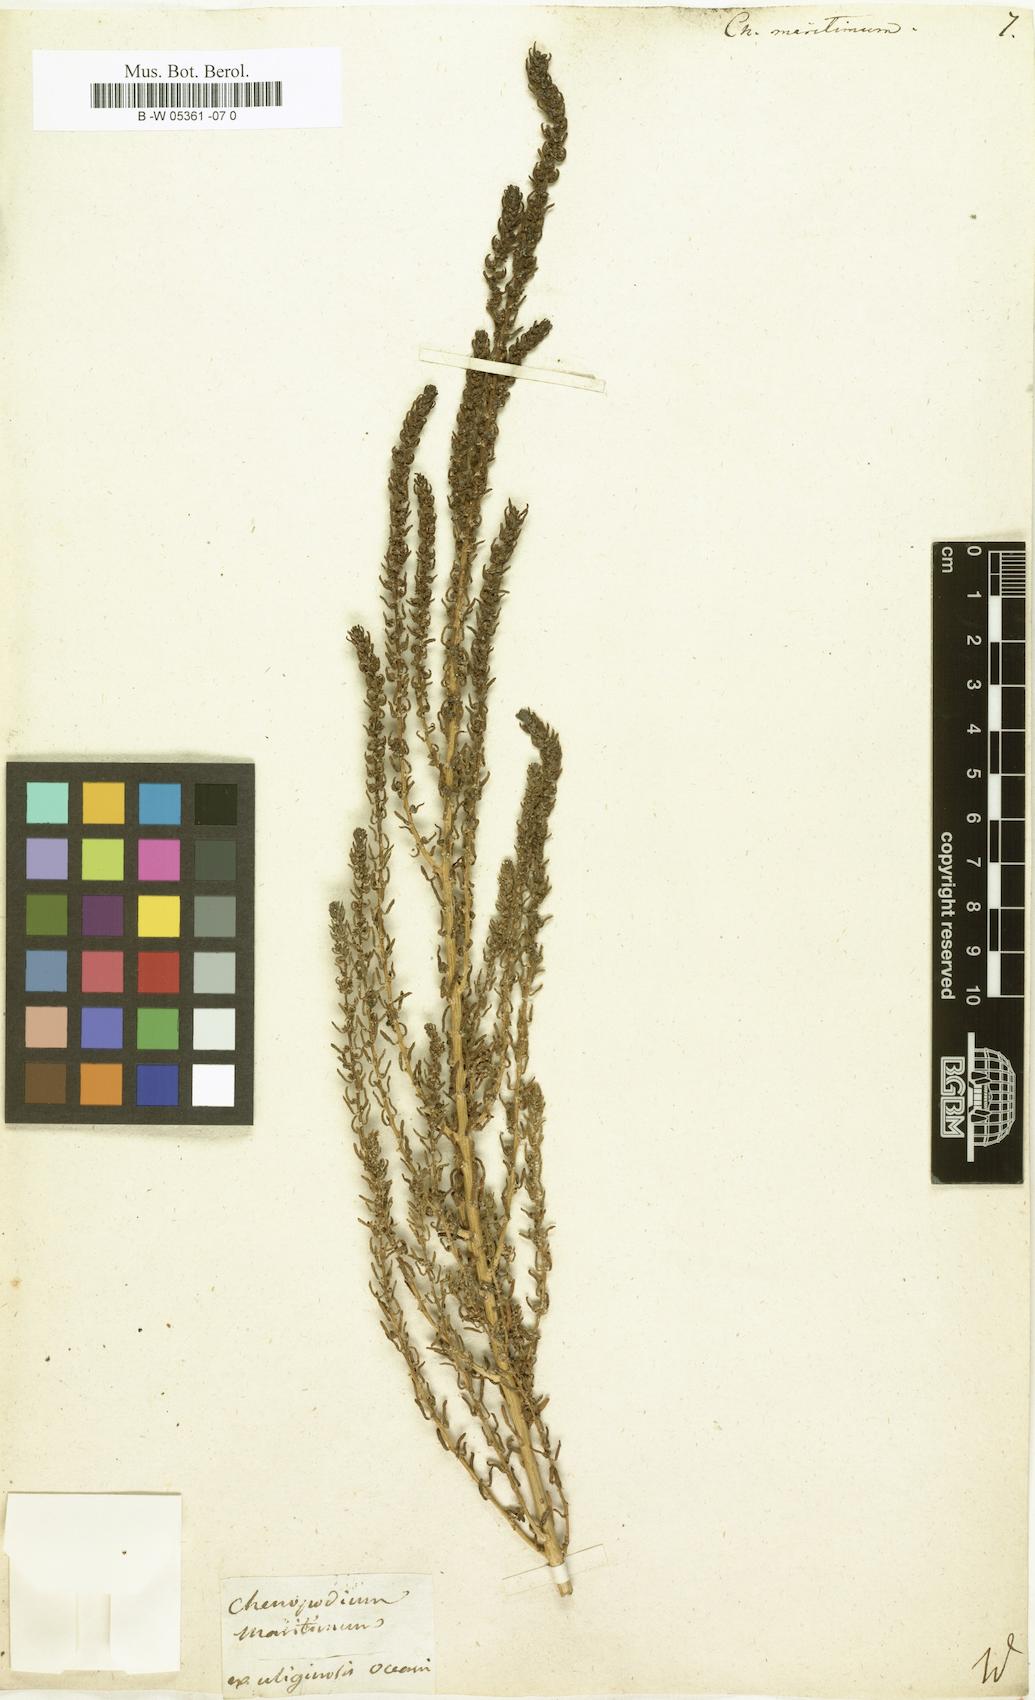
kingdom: Plantae
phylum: Tracheophyta
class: Magnoliopsida
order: Caryophyllales
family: Amaranthaceae
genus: Suaeda
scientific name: Suaeda
